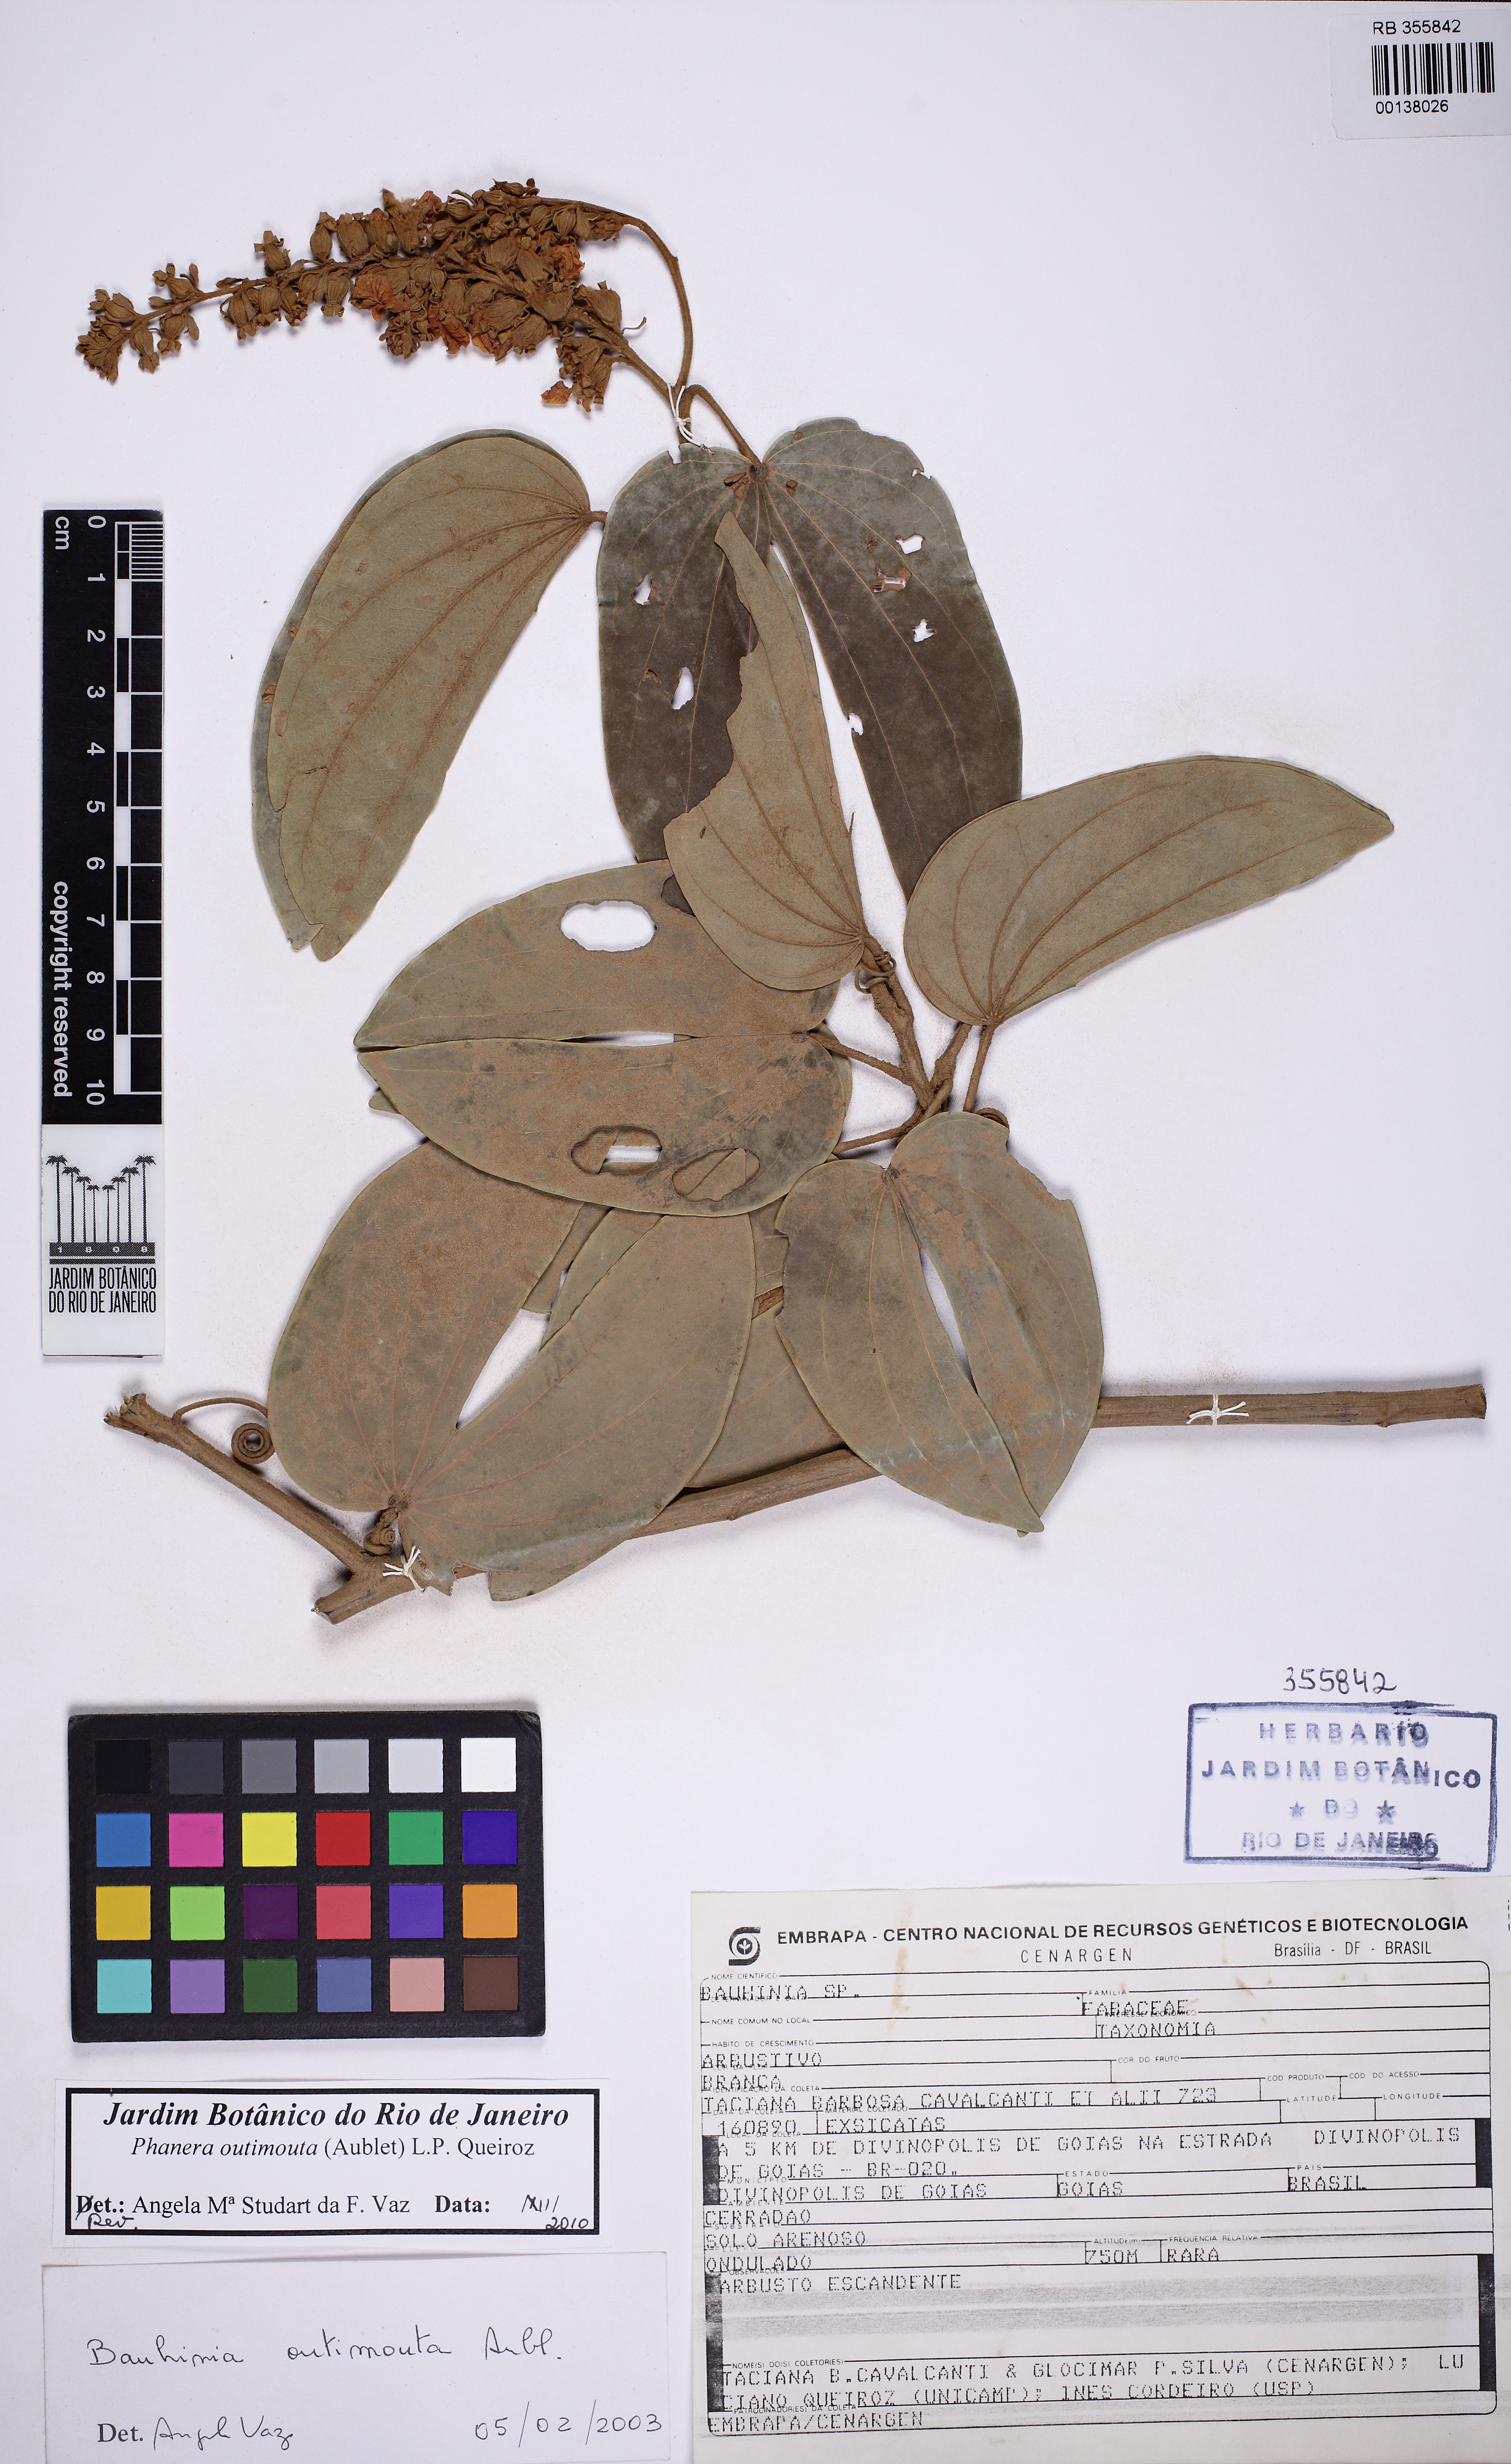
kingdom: Plantae
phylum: Tracheophyta
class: Magnoliopsida
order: Fabales
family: Fabaceae
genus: Schnella
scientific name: Schnella outimouta
